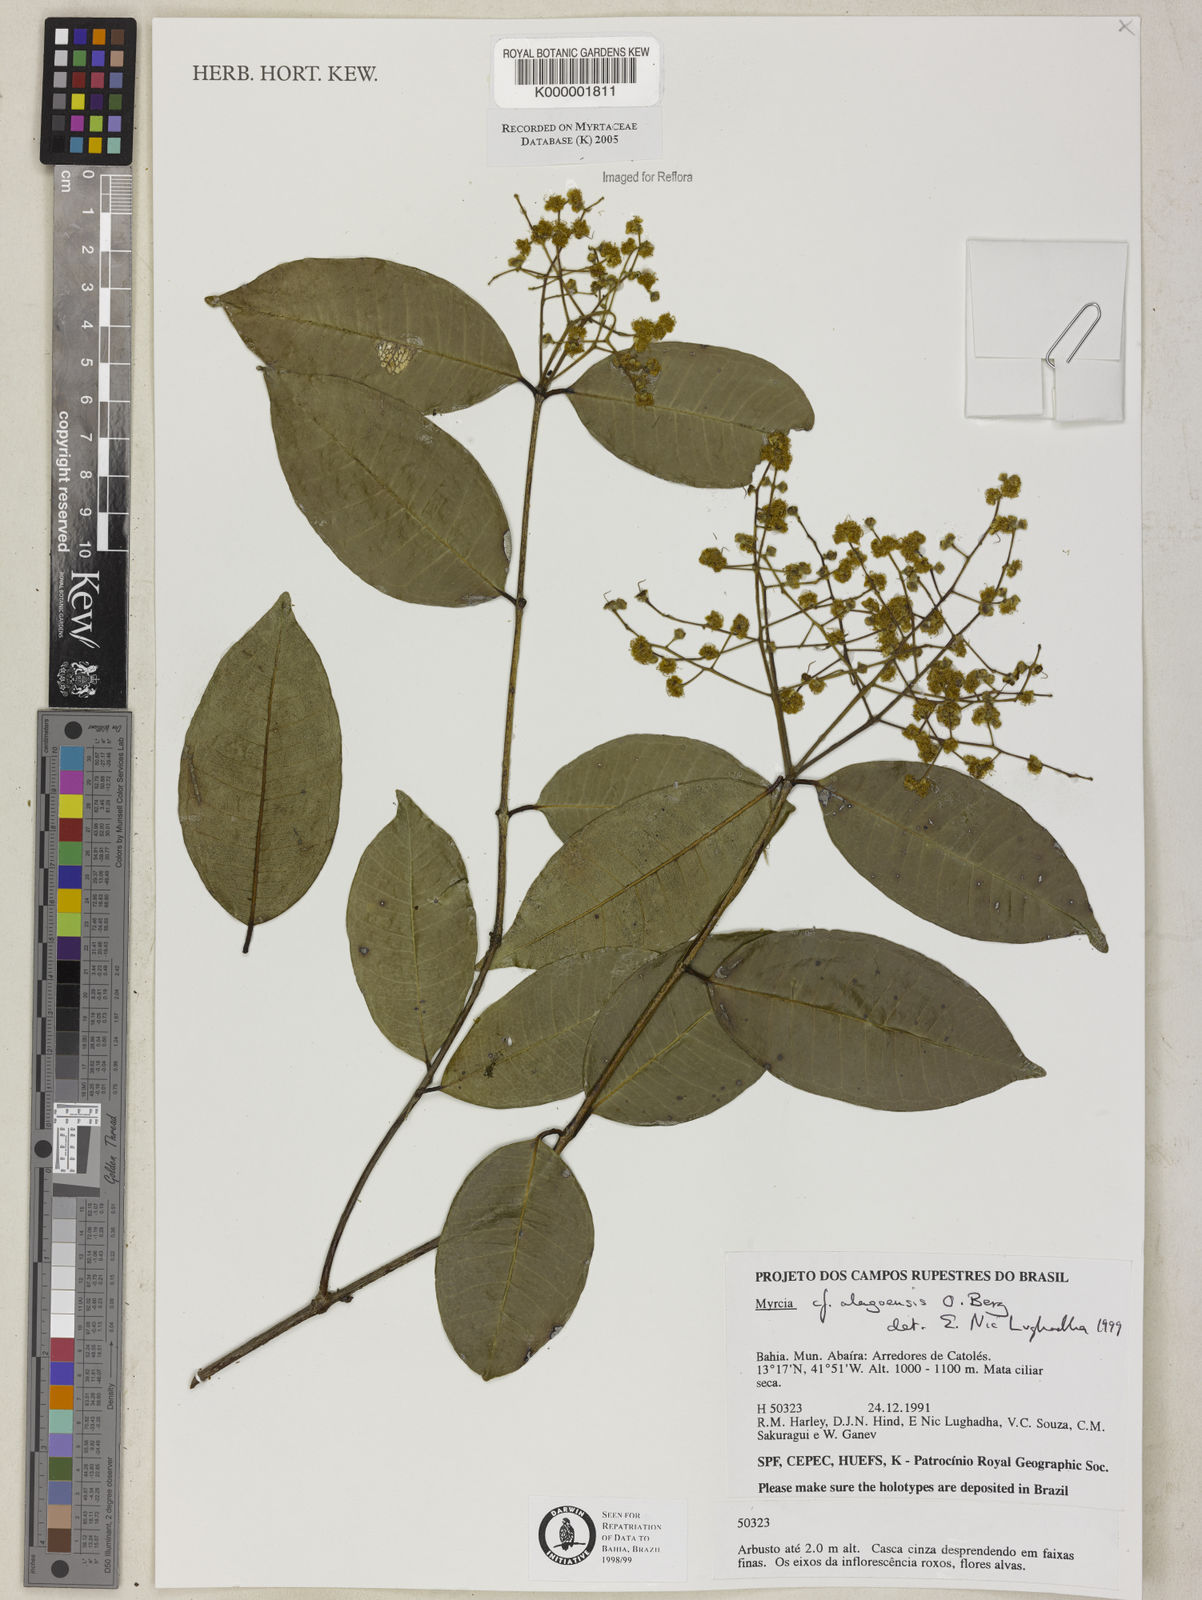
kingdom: Plantae
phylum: Tracheophyta
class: Magnoliopsida
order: Myrtales
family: Myrtaceae
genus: Myrcia
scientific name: Myrcia splendens
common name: Surinam cherry
